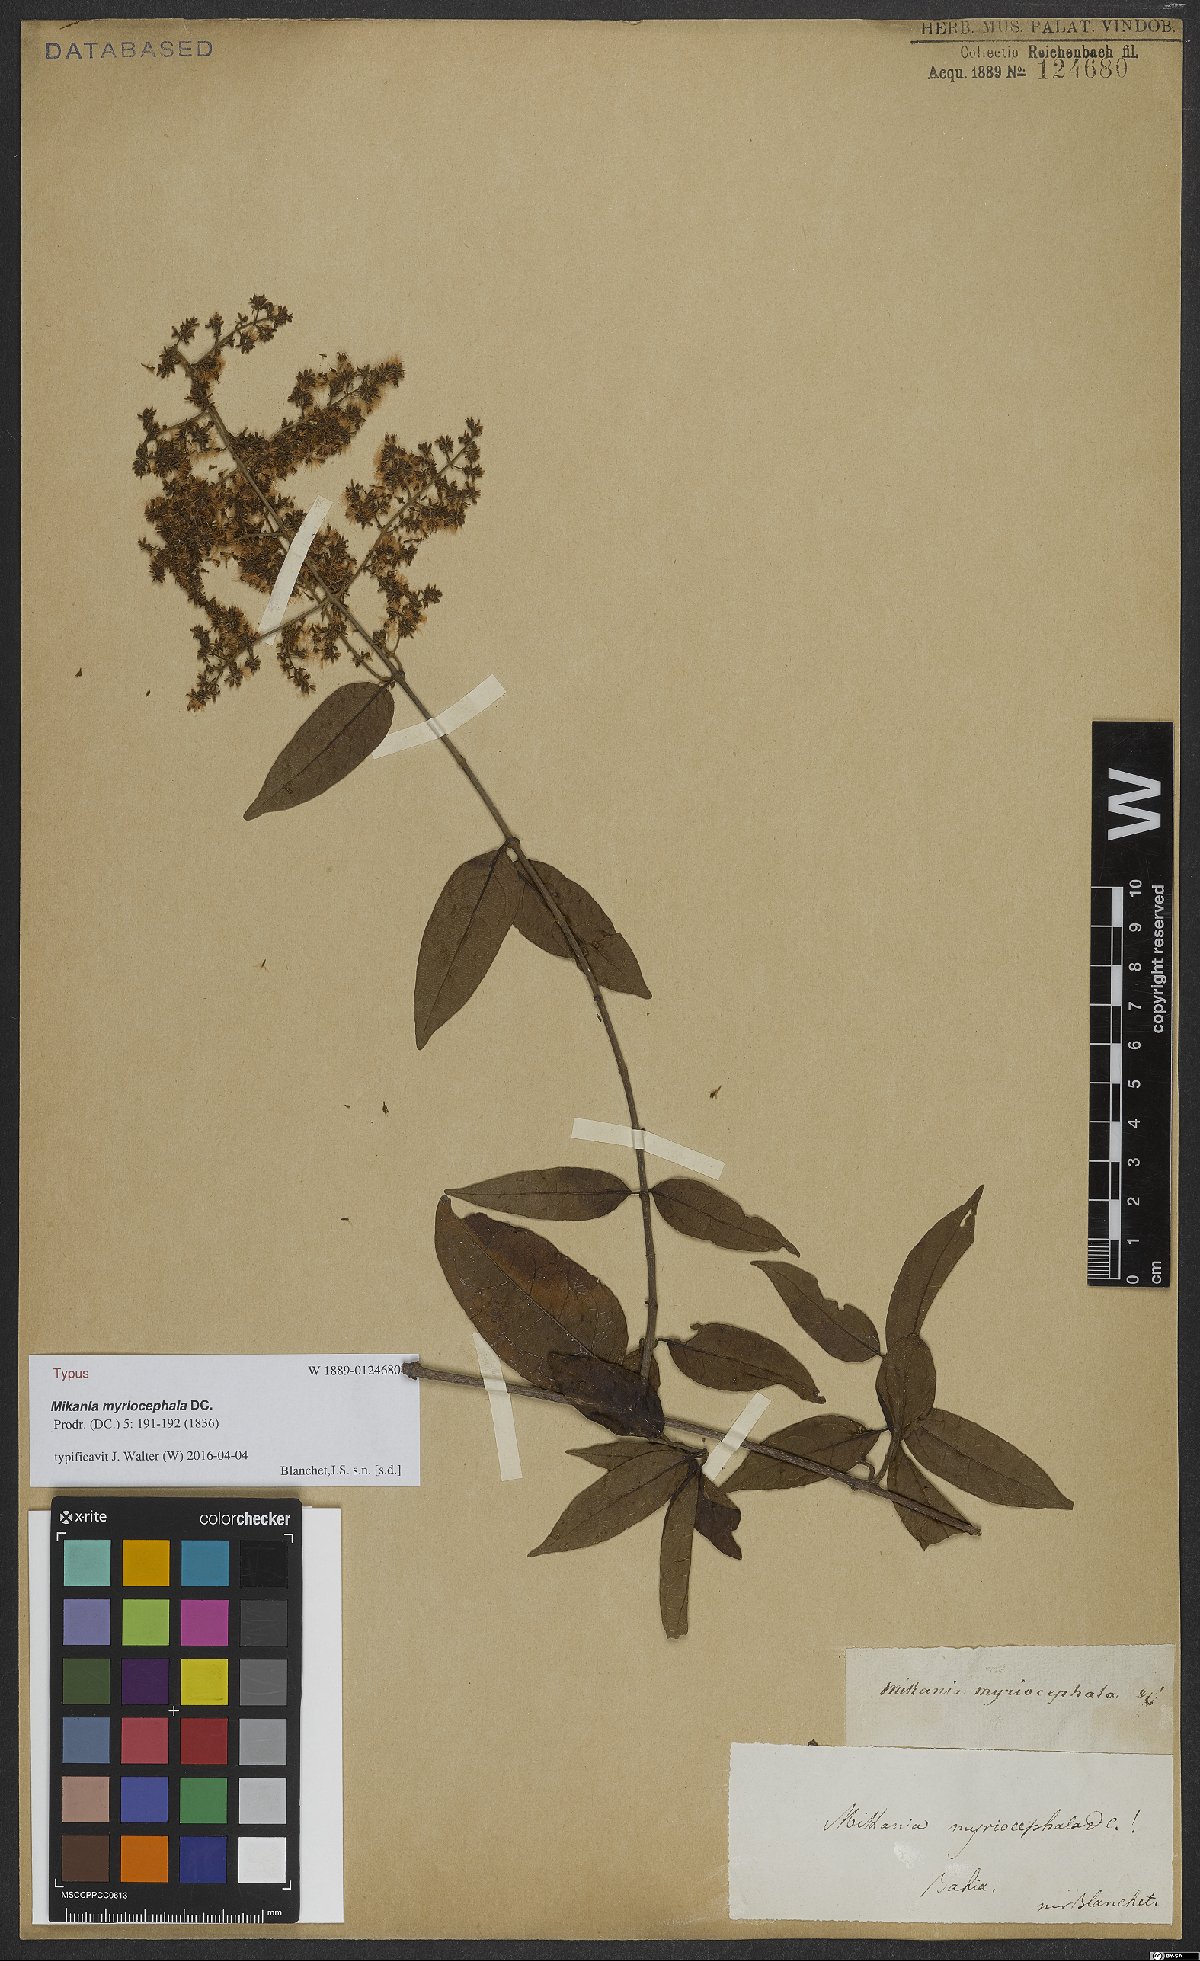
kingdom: Plantae
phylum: Tracheophyta
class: Magnoliopsida
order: Asterales
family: Asteraceae
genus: Mikania
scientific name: Mikania myriocephala
